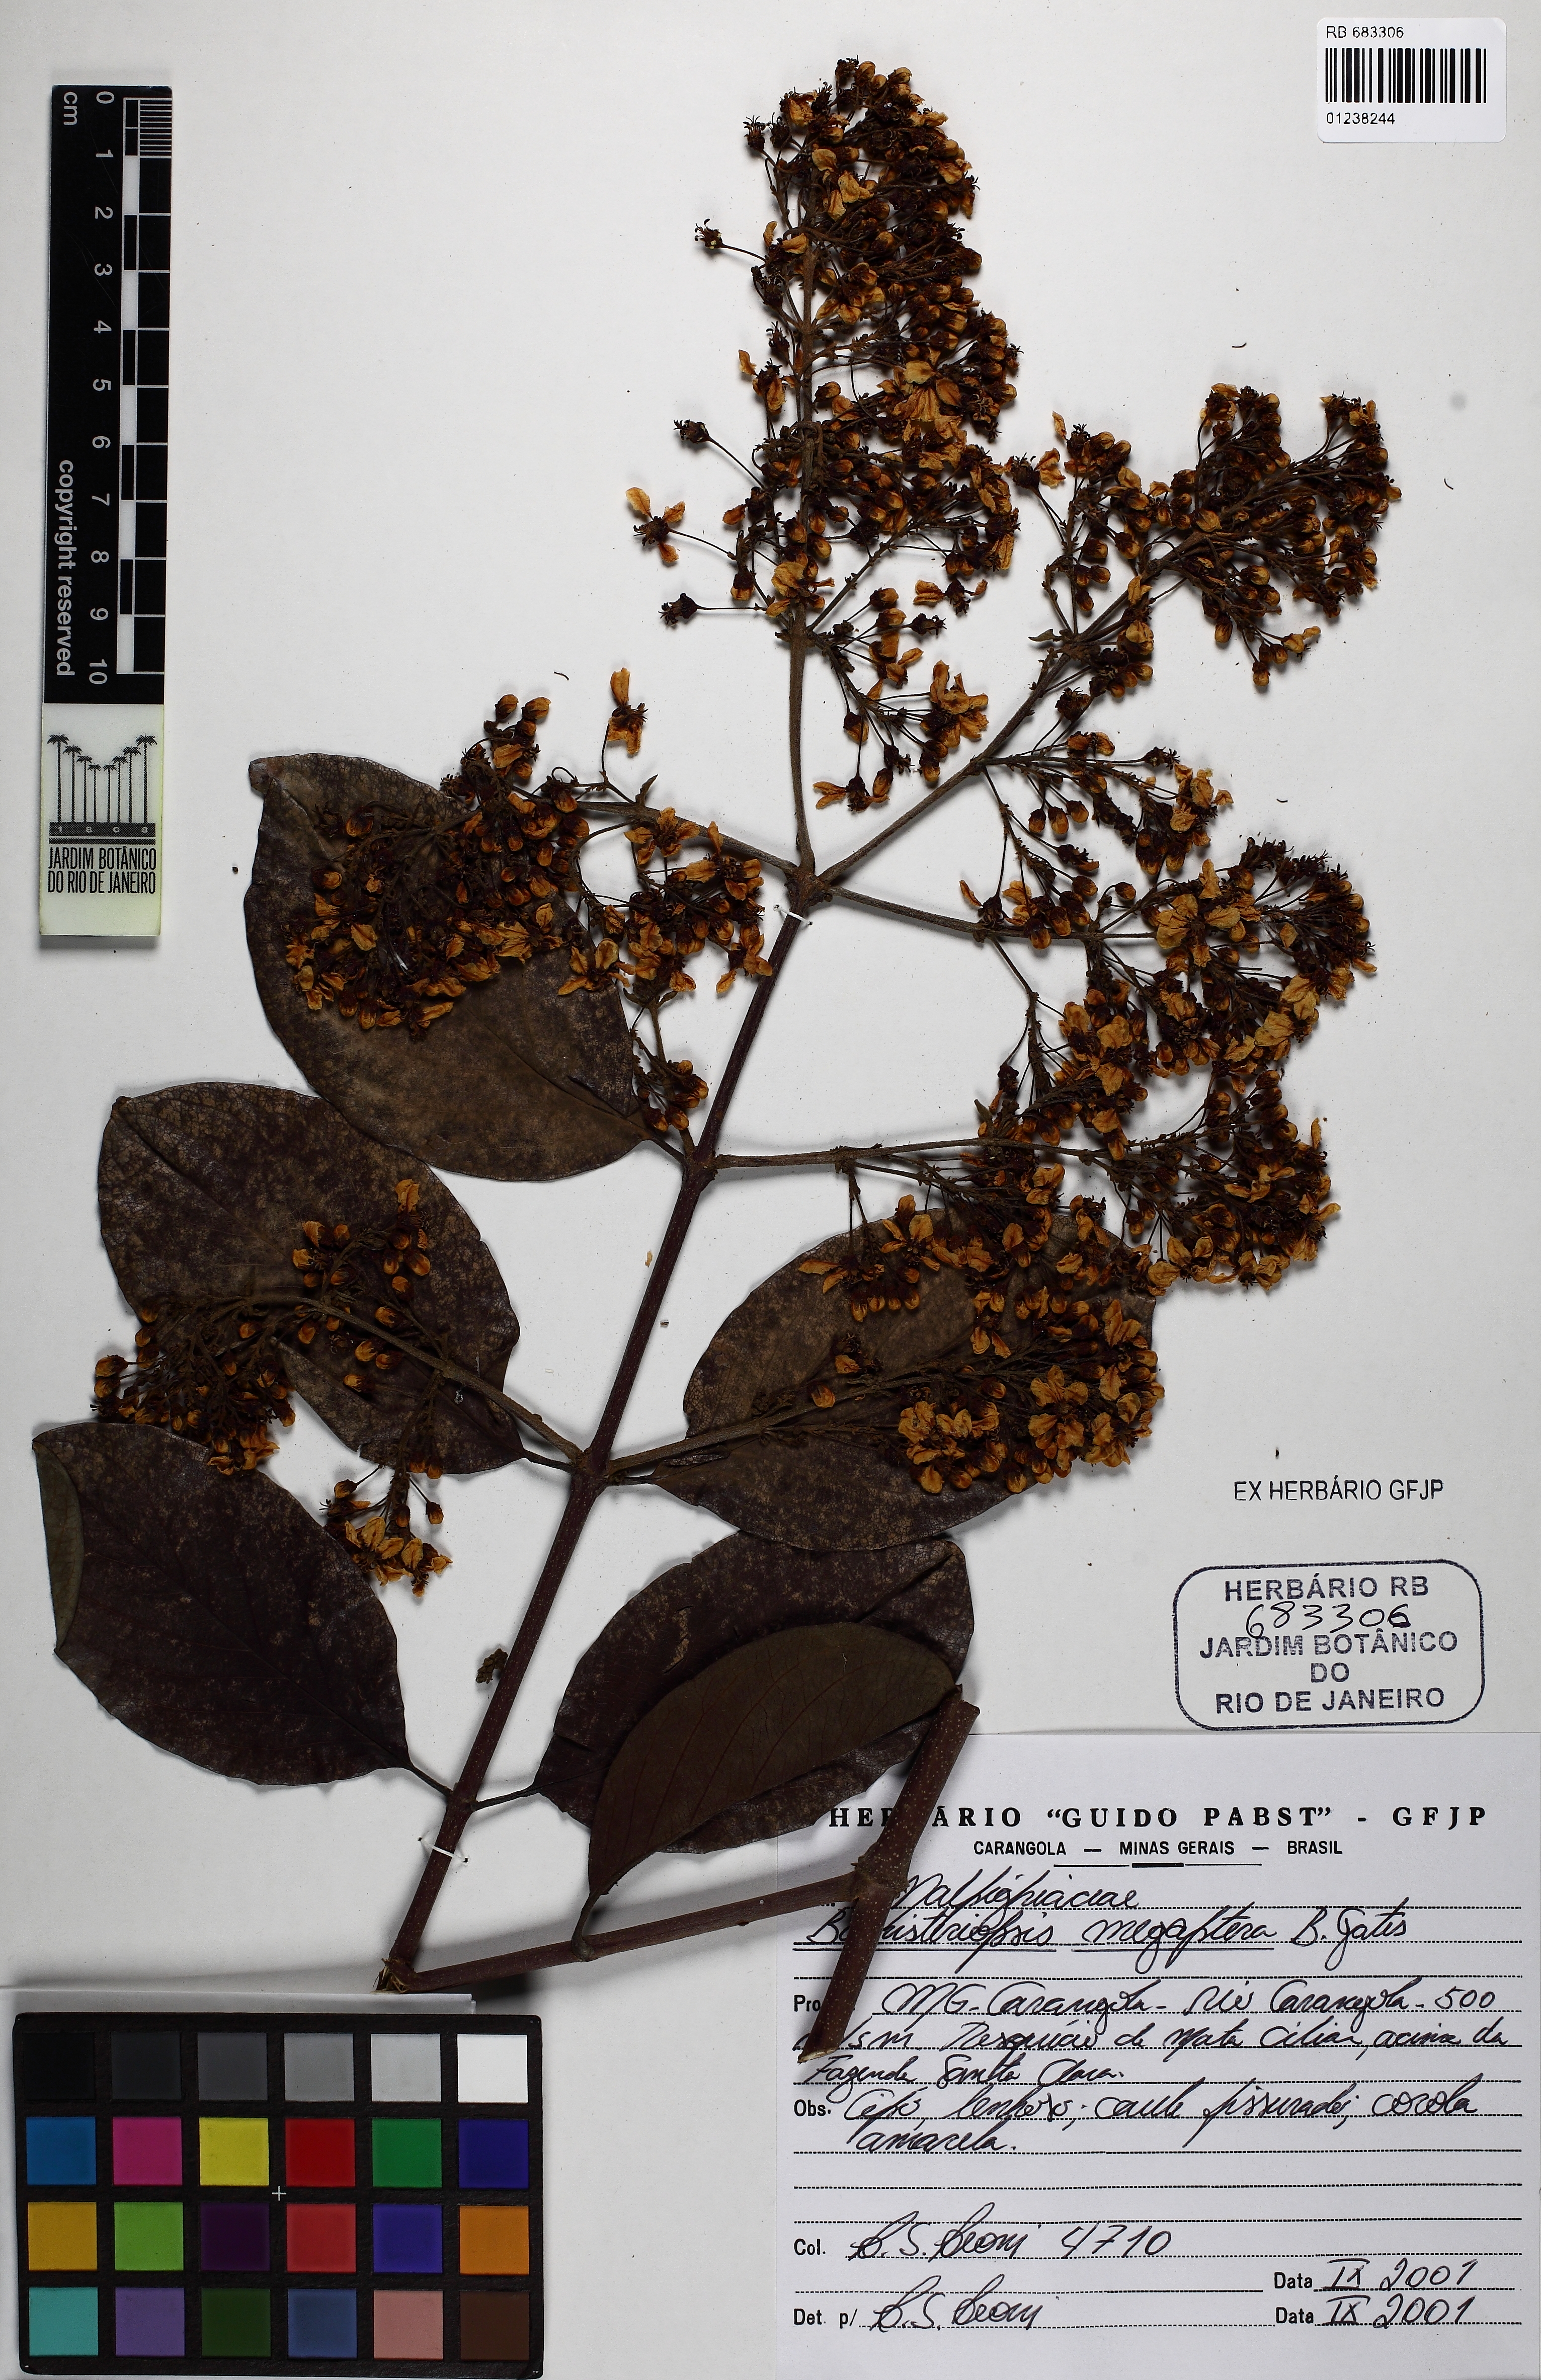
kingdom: Plantae
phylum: Tracheophyta
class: Magnoliopsida
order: Malpighiales
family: Malpighiaceae
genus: Bronwenia
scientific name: Bronwenia megaptera
